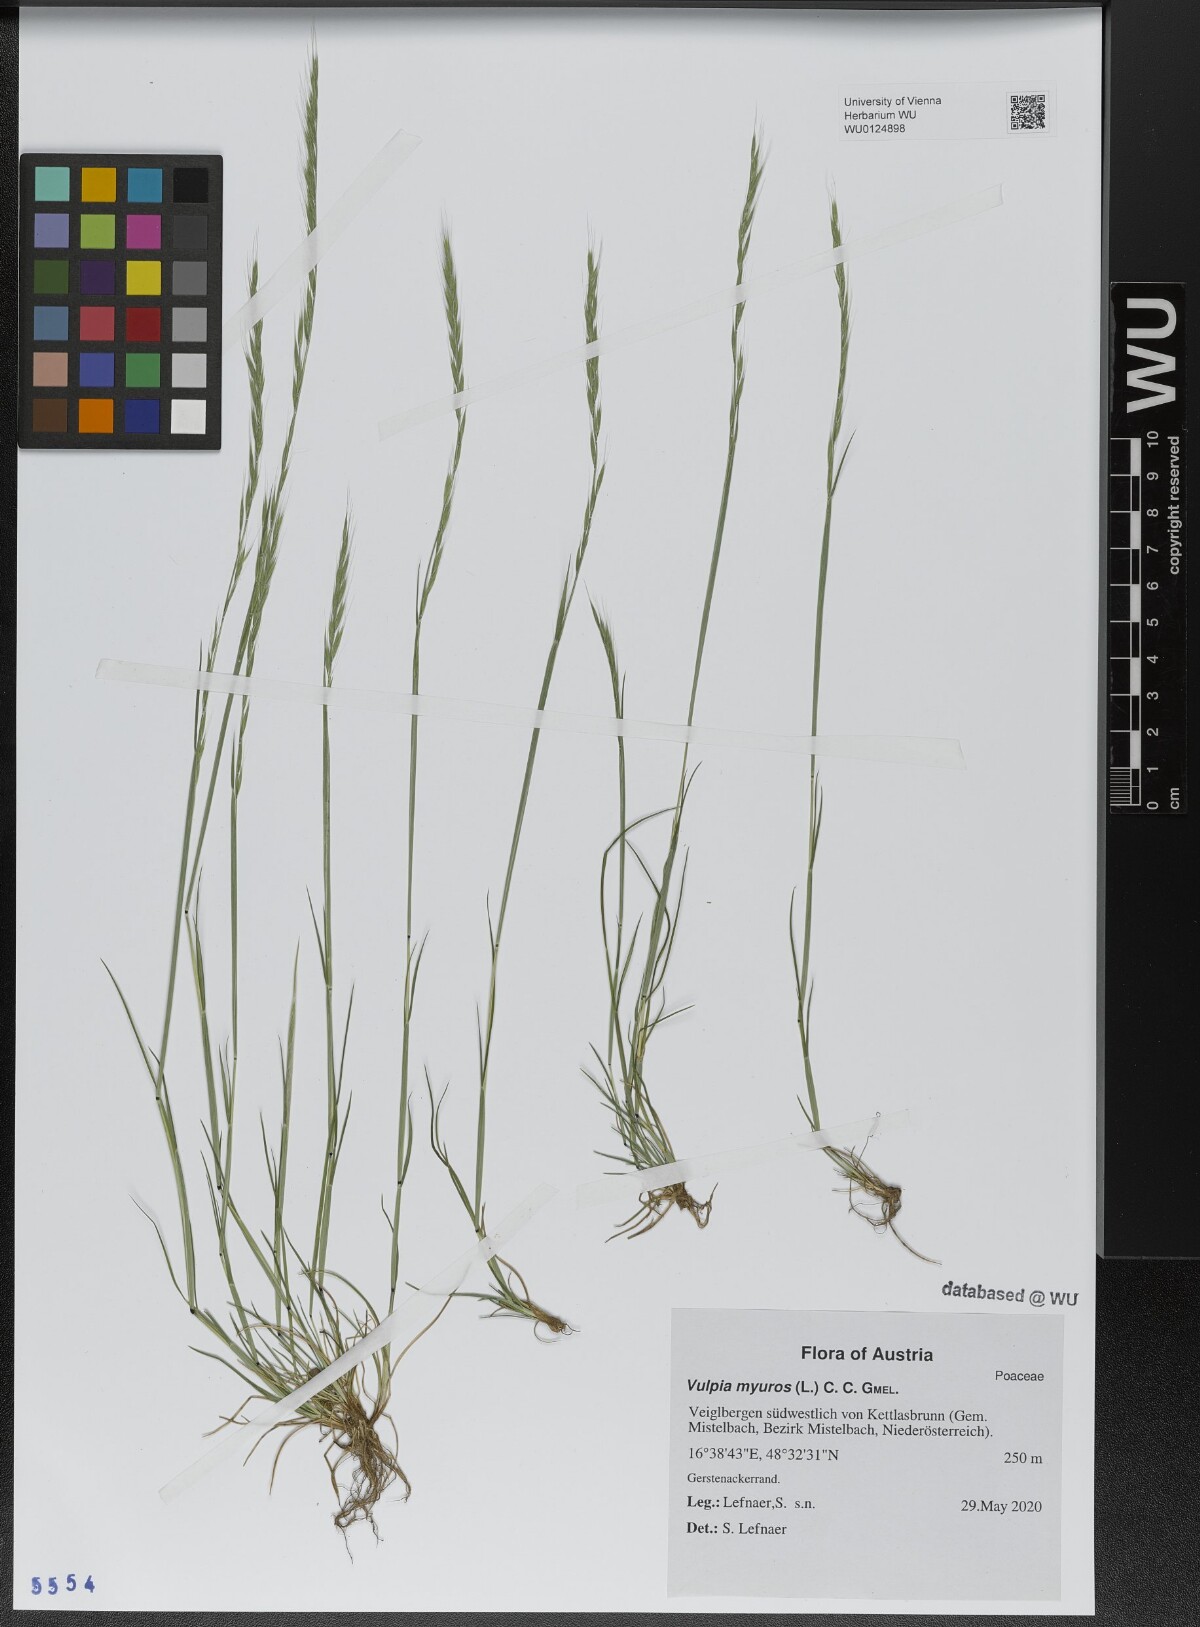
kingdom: Plantae
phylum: Tracheophyta
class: Liliopsida
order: Poales
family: Poaceae
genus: Festuca
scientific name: Festuca myuros
